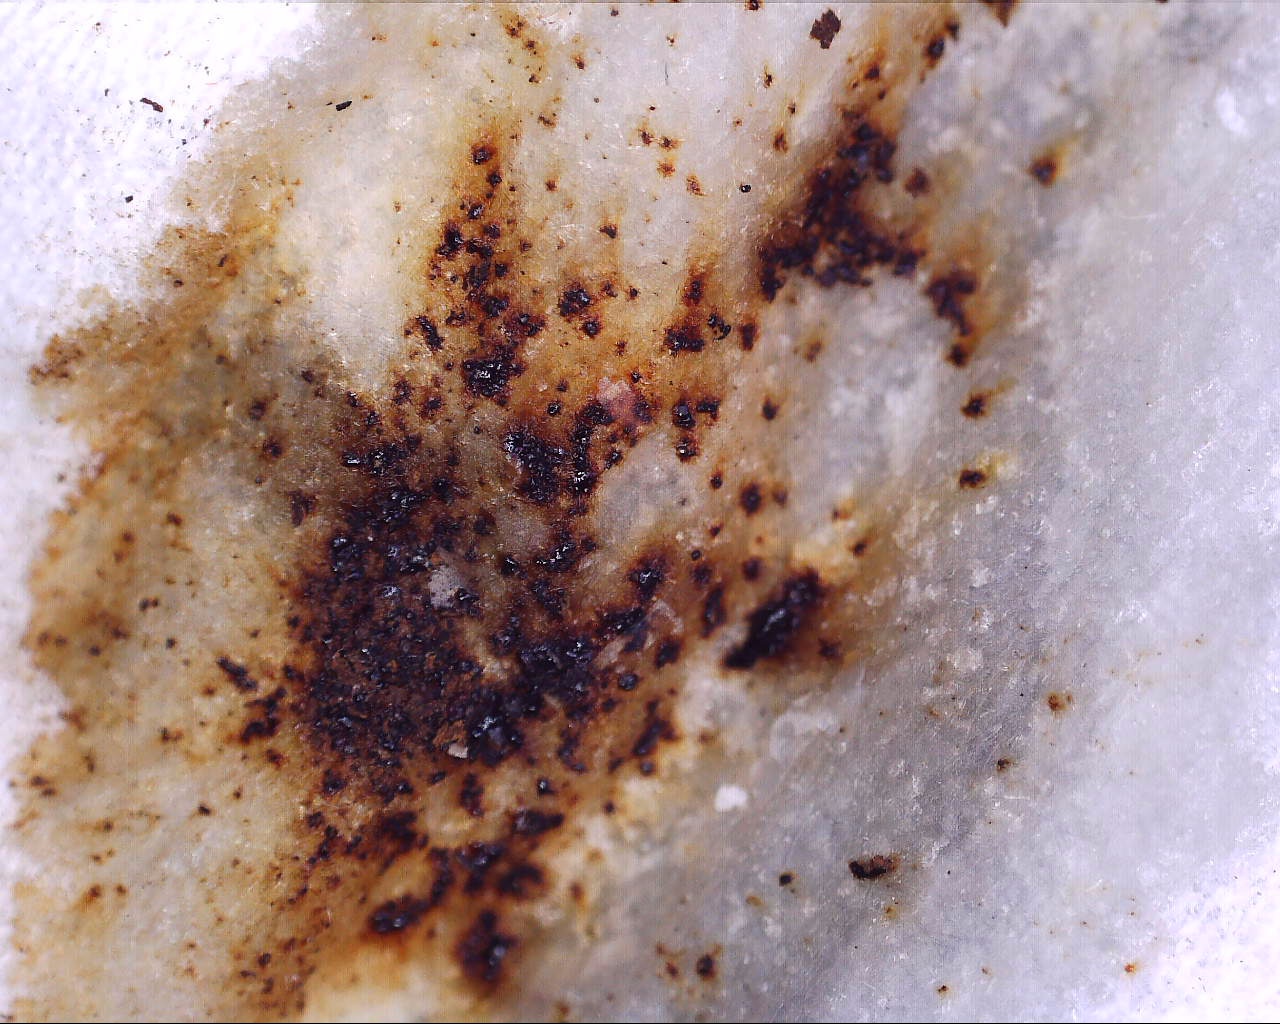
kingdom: Fungi
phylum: Ascomycota
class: Sordariomycetes
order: Xylariales
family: Hypoxylaceae
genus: Hypoxylon
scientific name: Hypoxylon petriniae
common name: nedsænket kulbær
